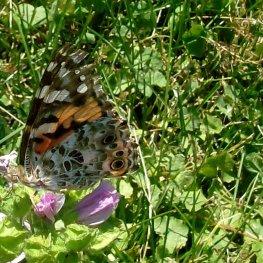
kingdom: Animalia
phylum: Arthropoda
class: Insecta
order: Lepidoptera
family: Nymphalidae
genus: Vanessa
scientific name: Vanessa cardui
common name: Painted Lady
